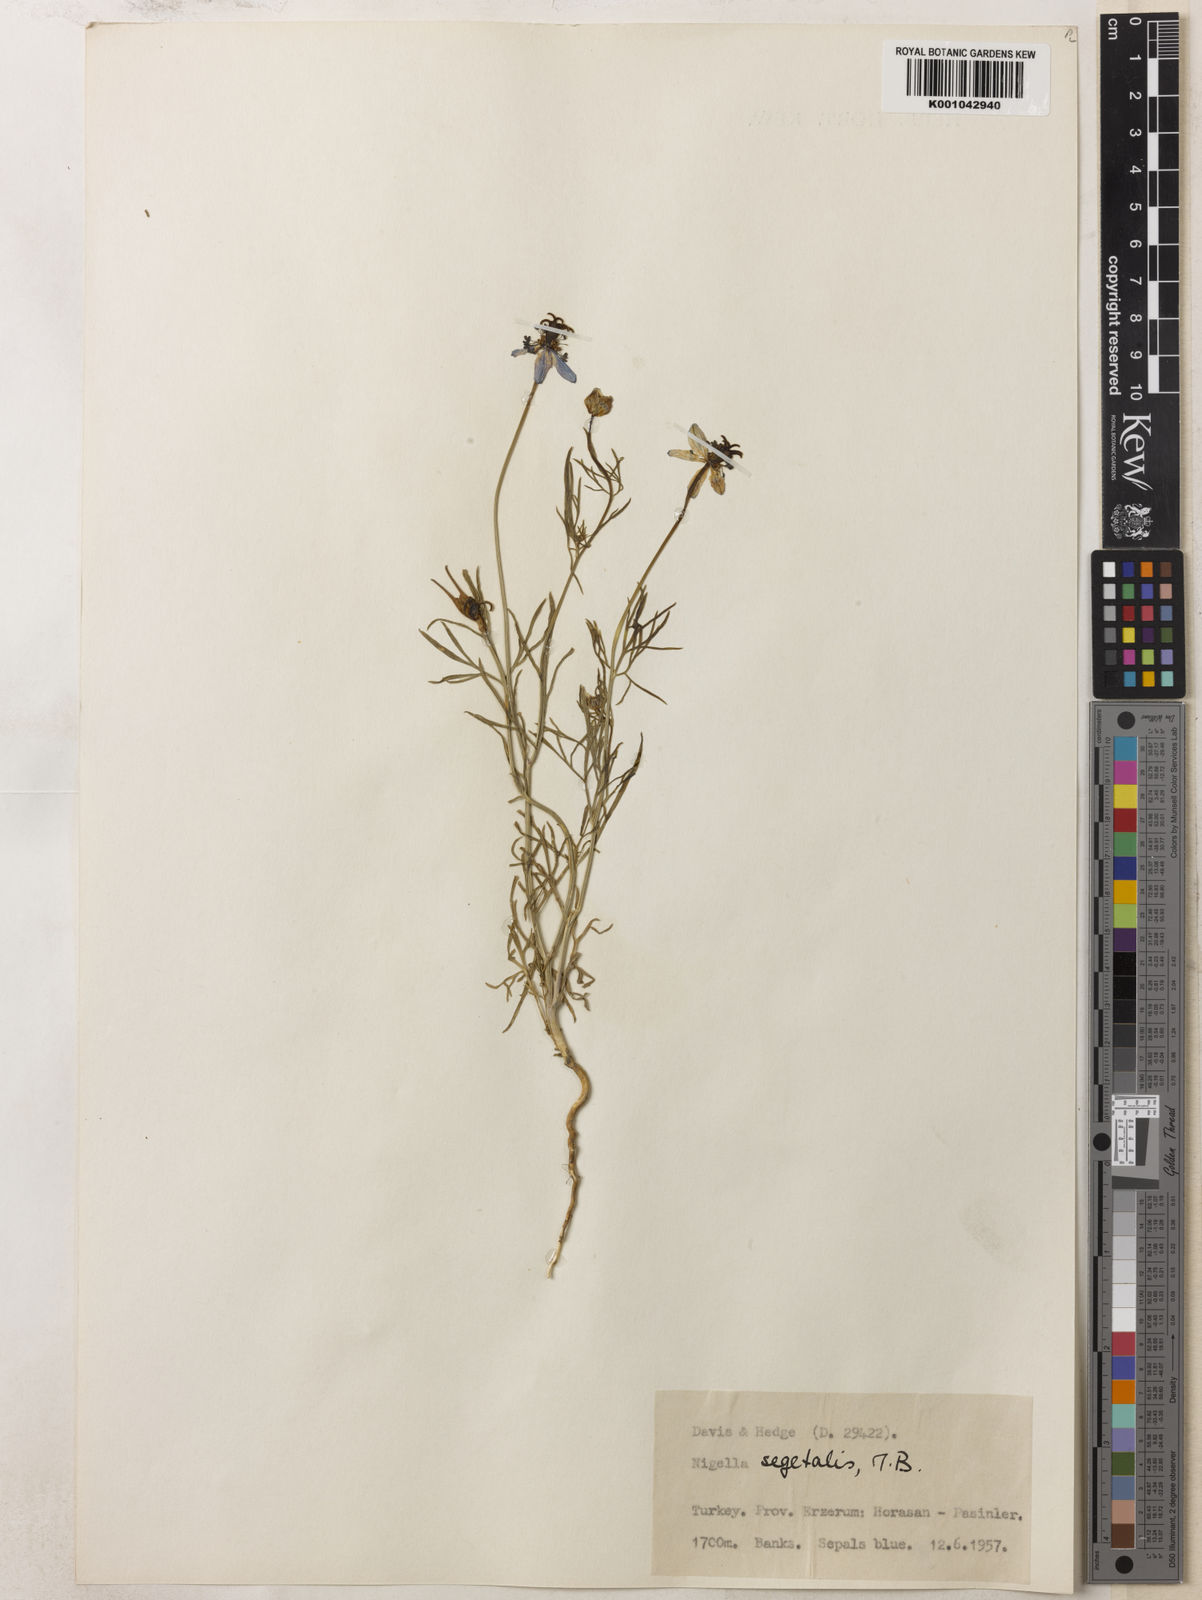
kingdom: Plantae
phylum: Tracheophyta
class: Magnoliopsida
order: Ranunculales
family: Ranunculaceae
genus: Nigella
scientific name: Nigella segetalis
